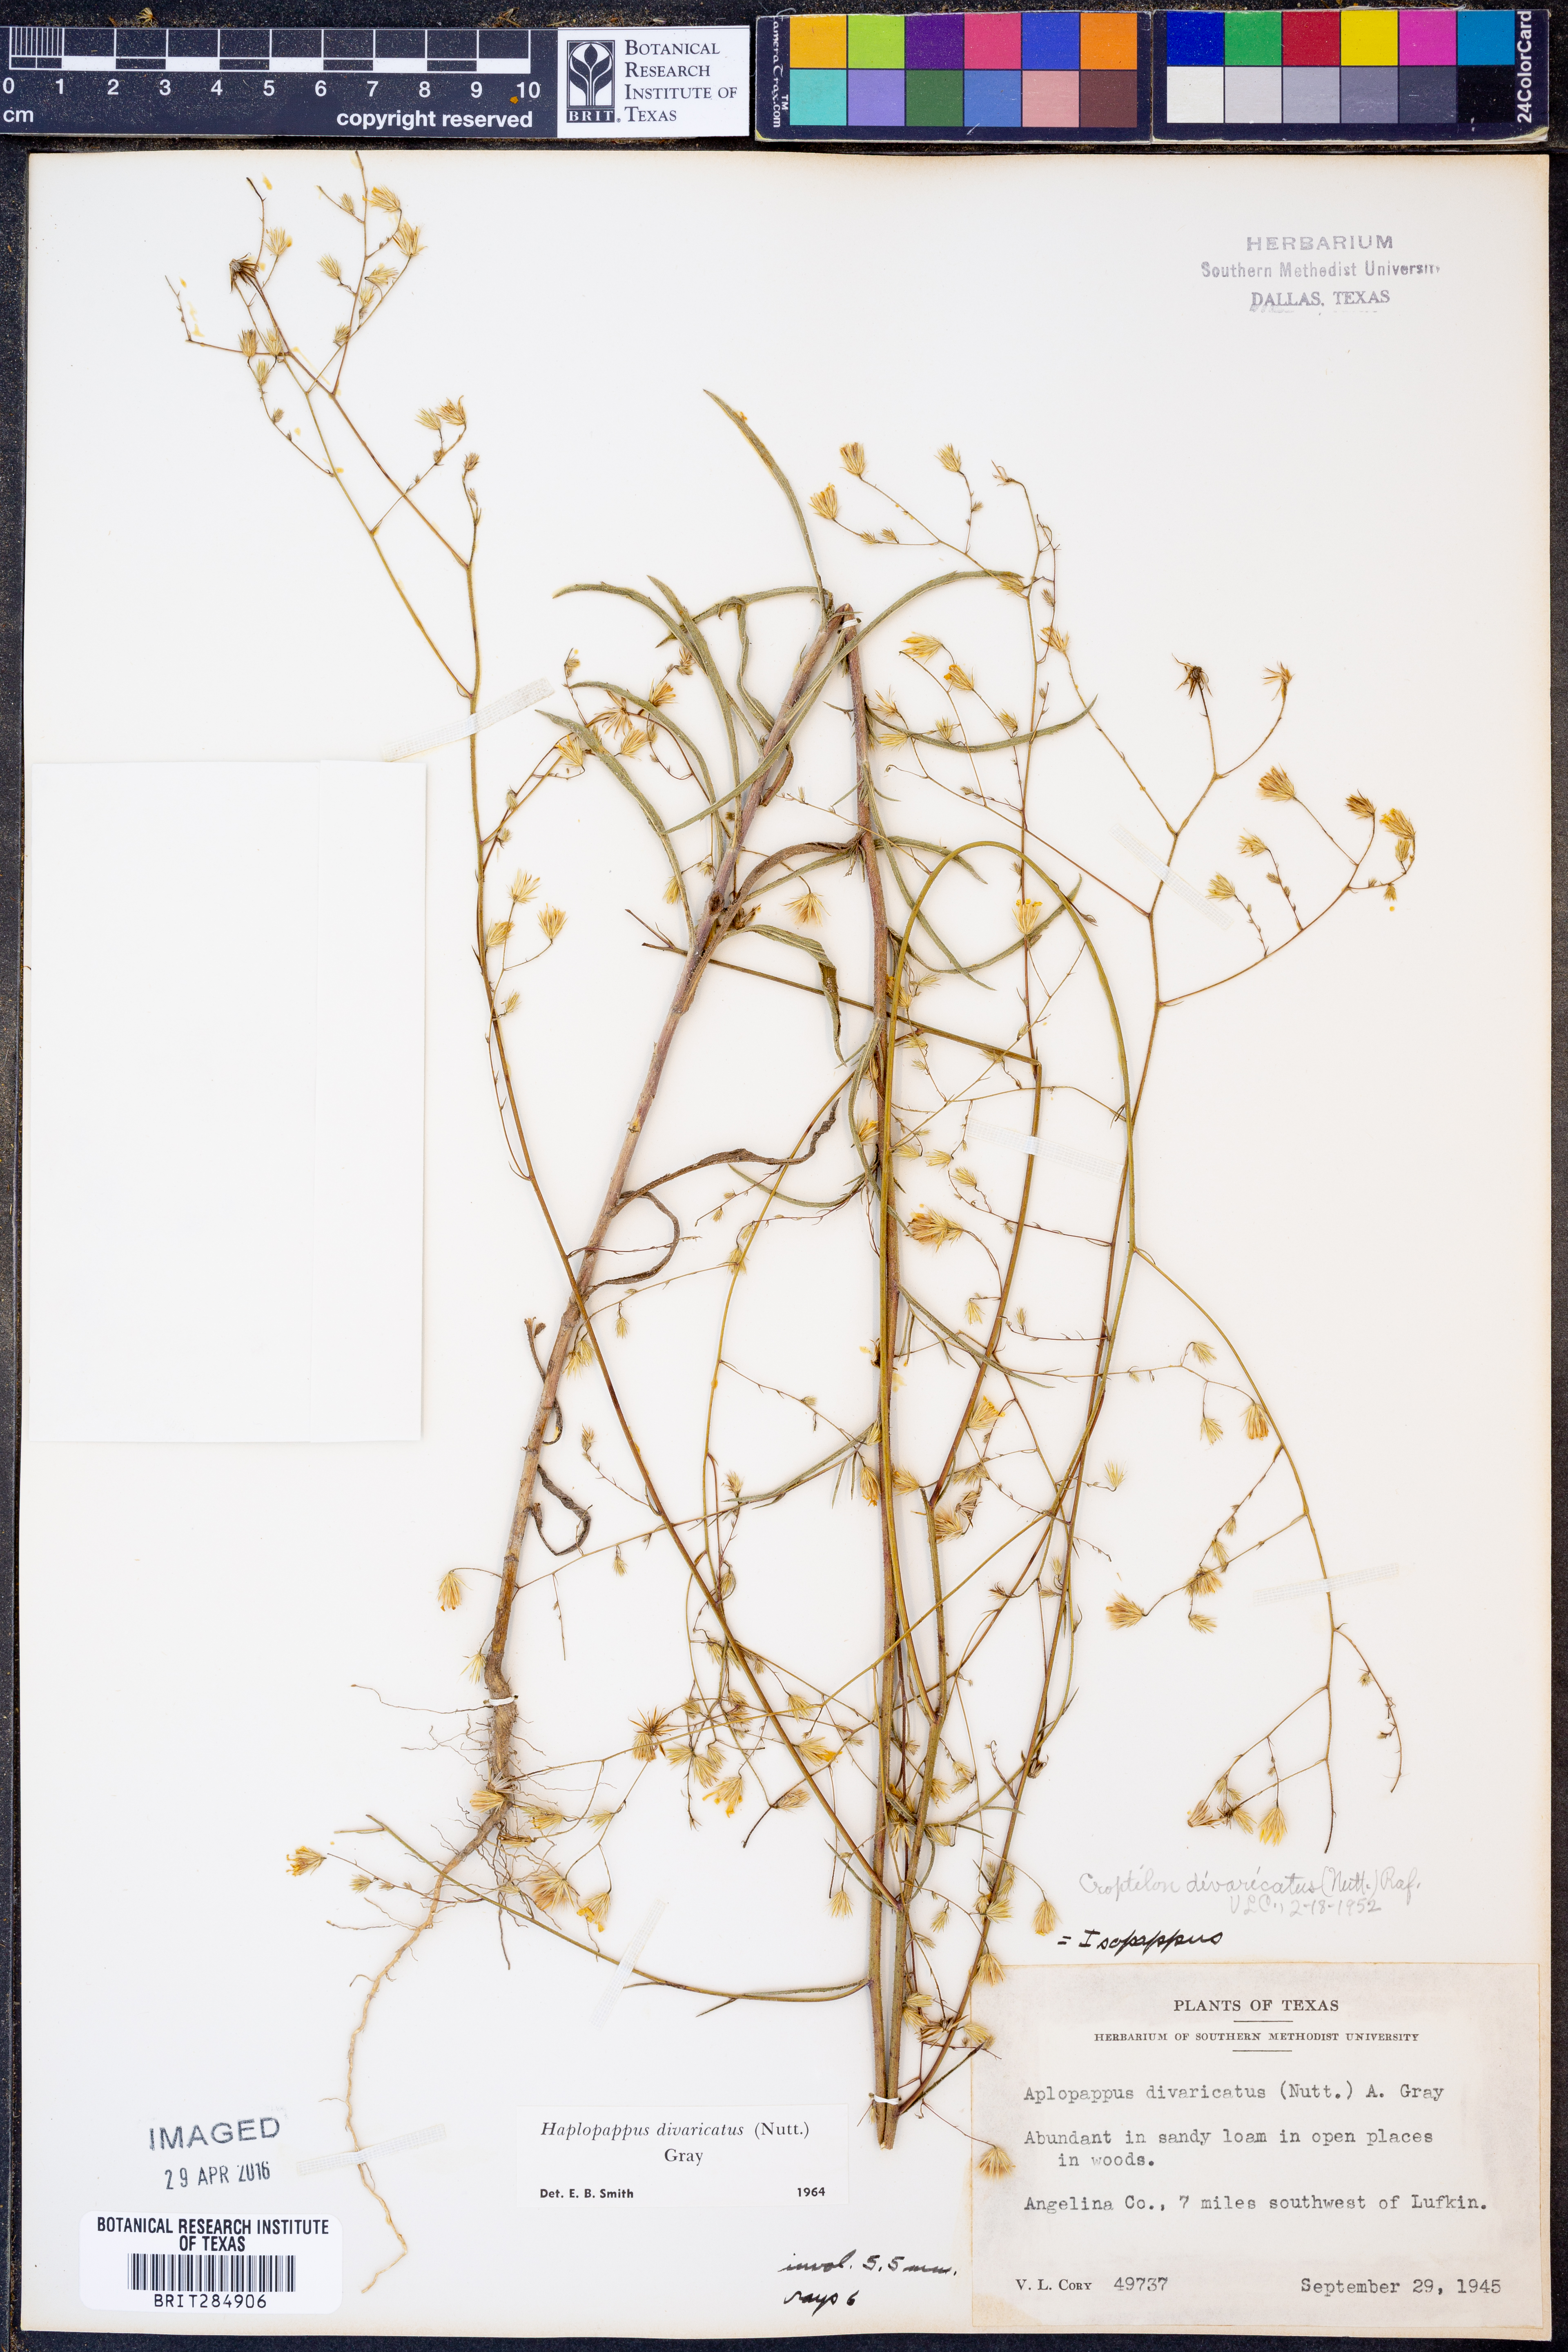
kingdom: Plantae
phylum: Tracheophyta
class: Magnoliopsida
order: Asterales
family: Asteraceae
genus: Croptilon
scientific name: Croptilon divaricatum
